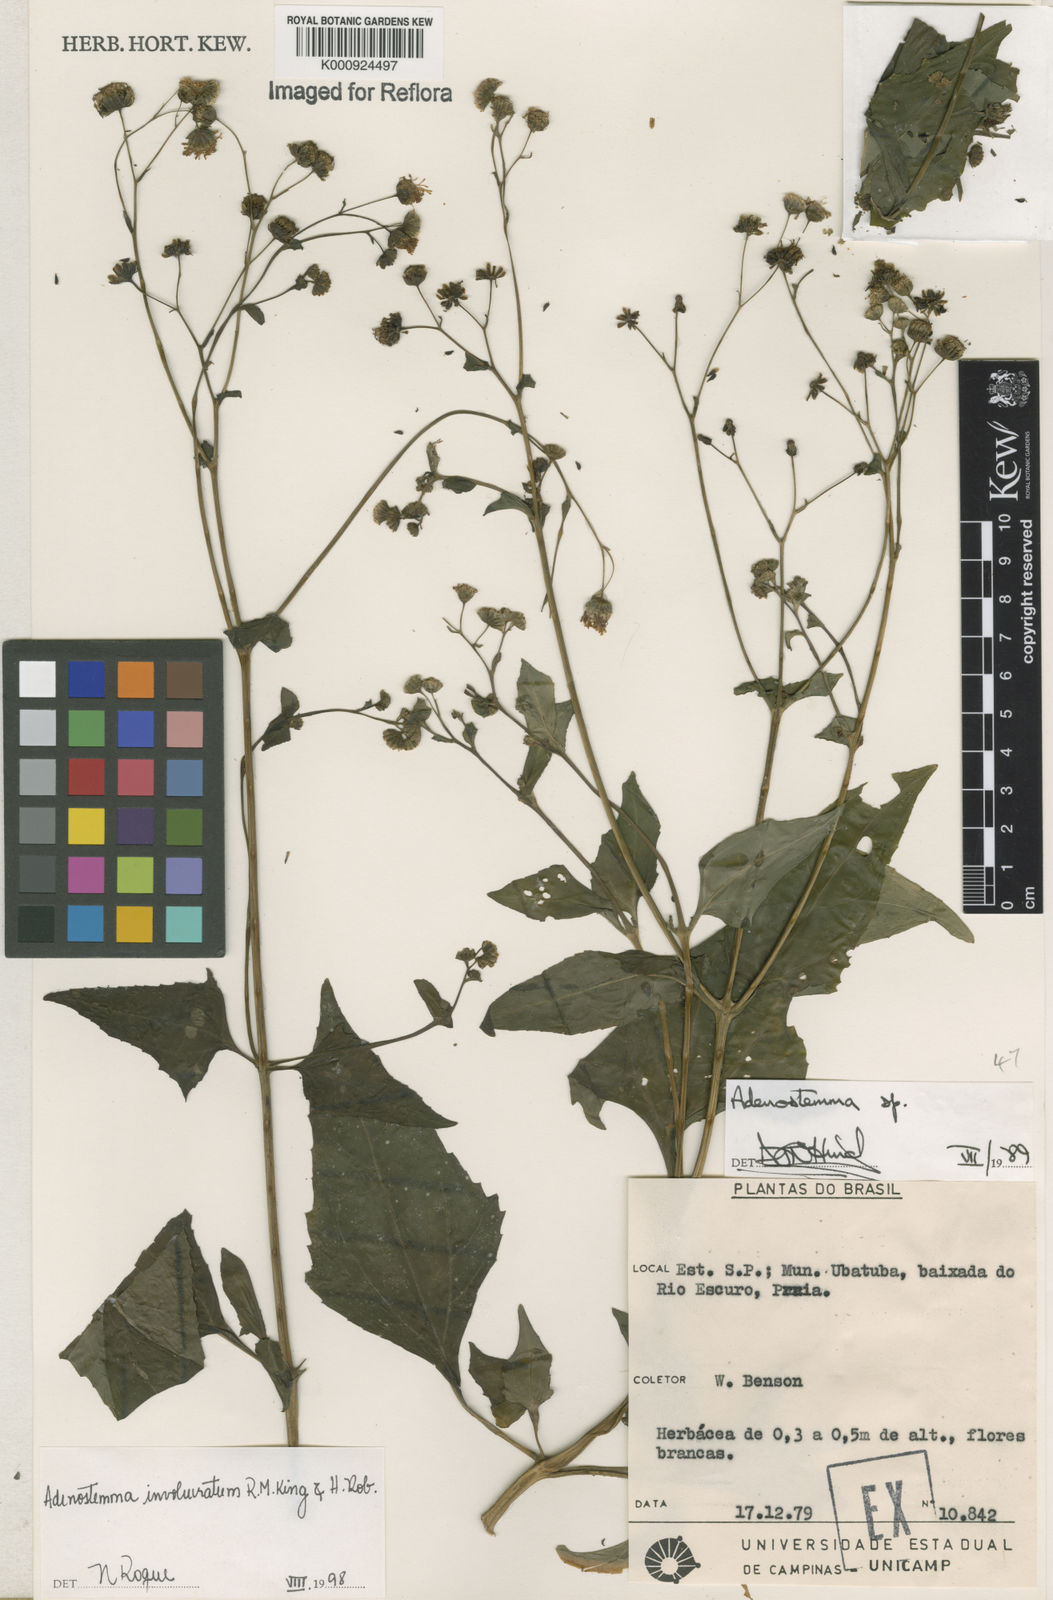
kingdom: Plantae
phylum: Tracheophyta
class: Magnoliopsida
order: Asterales
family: Asteraceae
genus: Adenostemma
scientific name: Adenostemma involucratum
